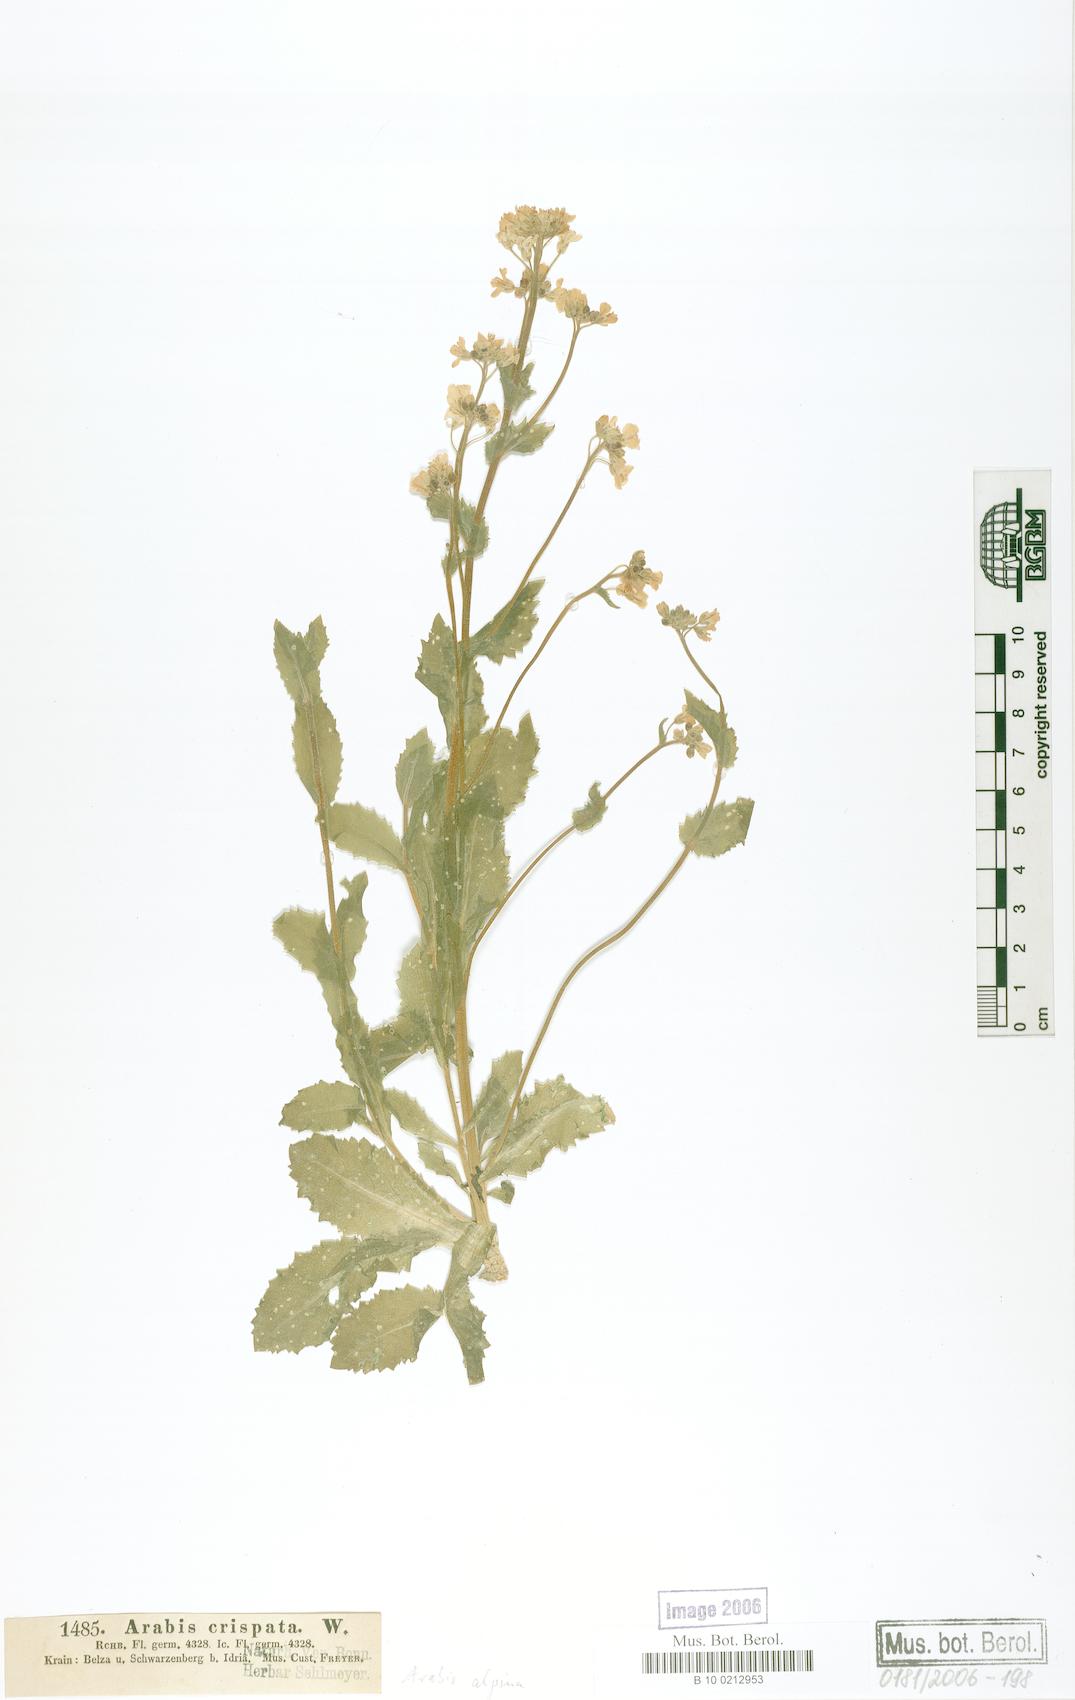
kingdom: Plantae
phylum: Tracheophyta
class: Magnoliopsida
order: Brassicales
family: Brassicaceae
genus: Arabis
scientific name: Arabis alpina
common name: Alpine rock-cress
